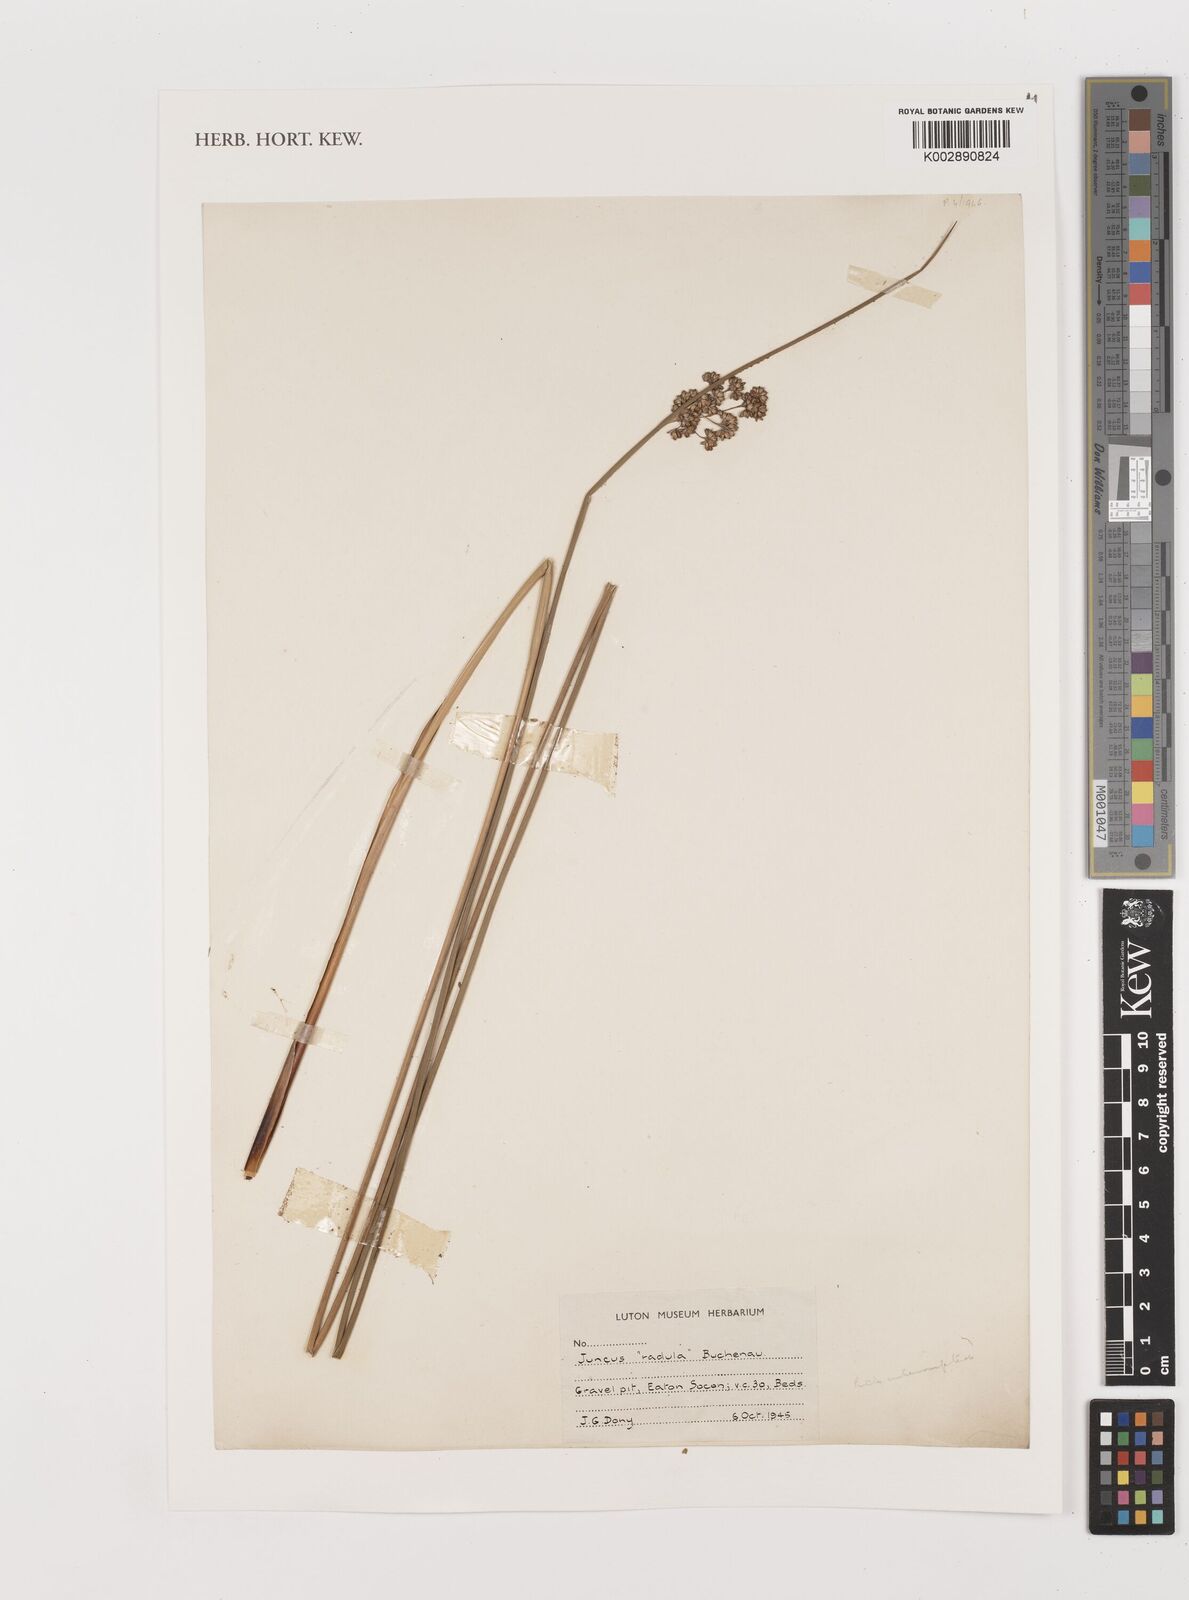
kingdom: Plantae
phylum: Tracheophyta
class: Liliopsida
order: Poales
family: Juncaceae
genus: Juncus
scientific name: Juncus radula
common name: Hoary rush
